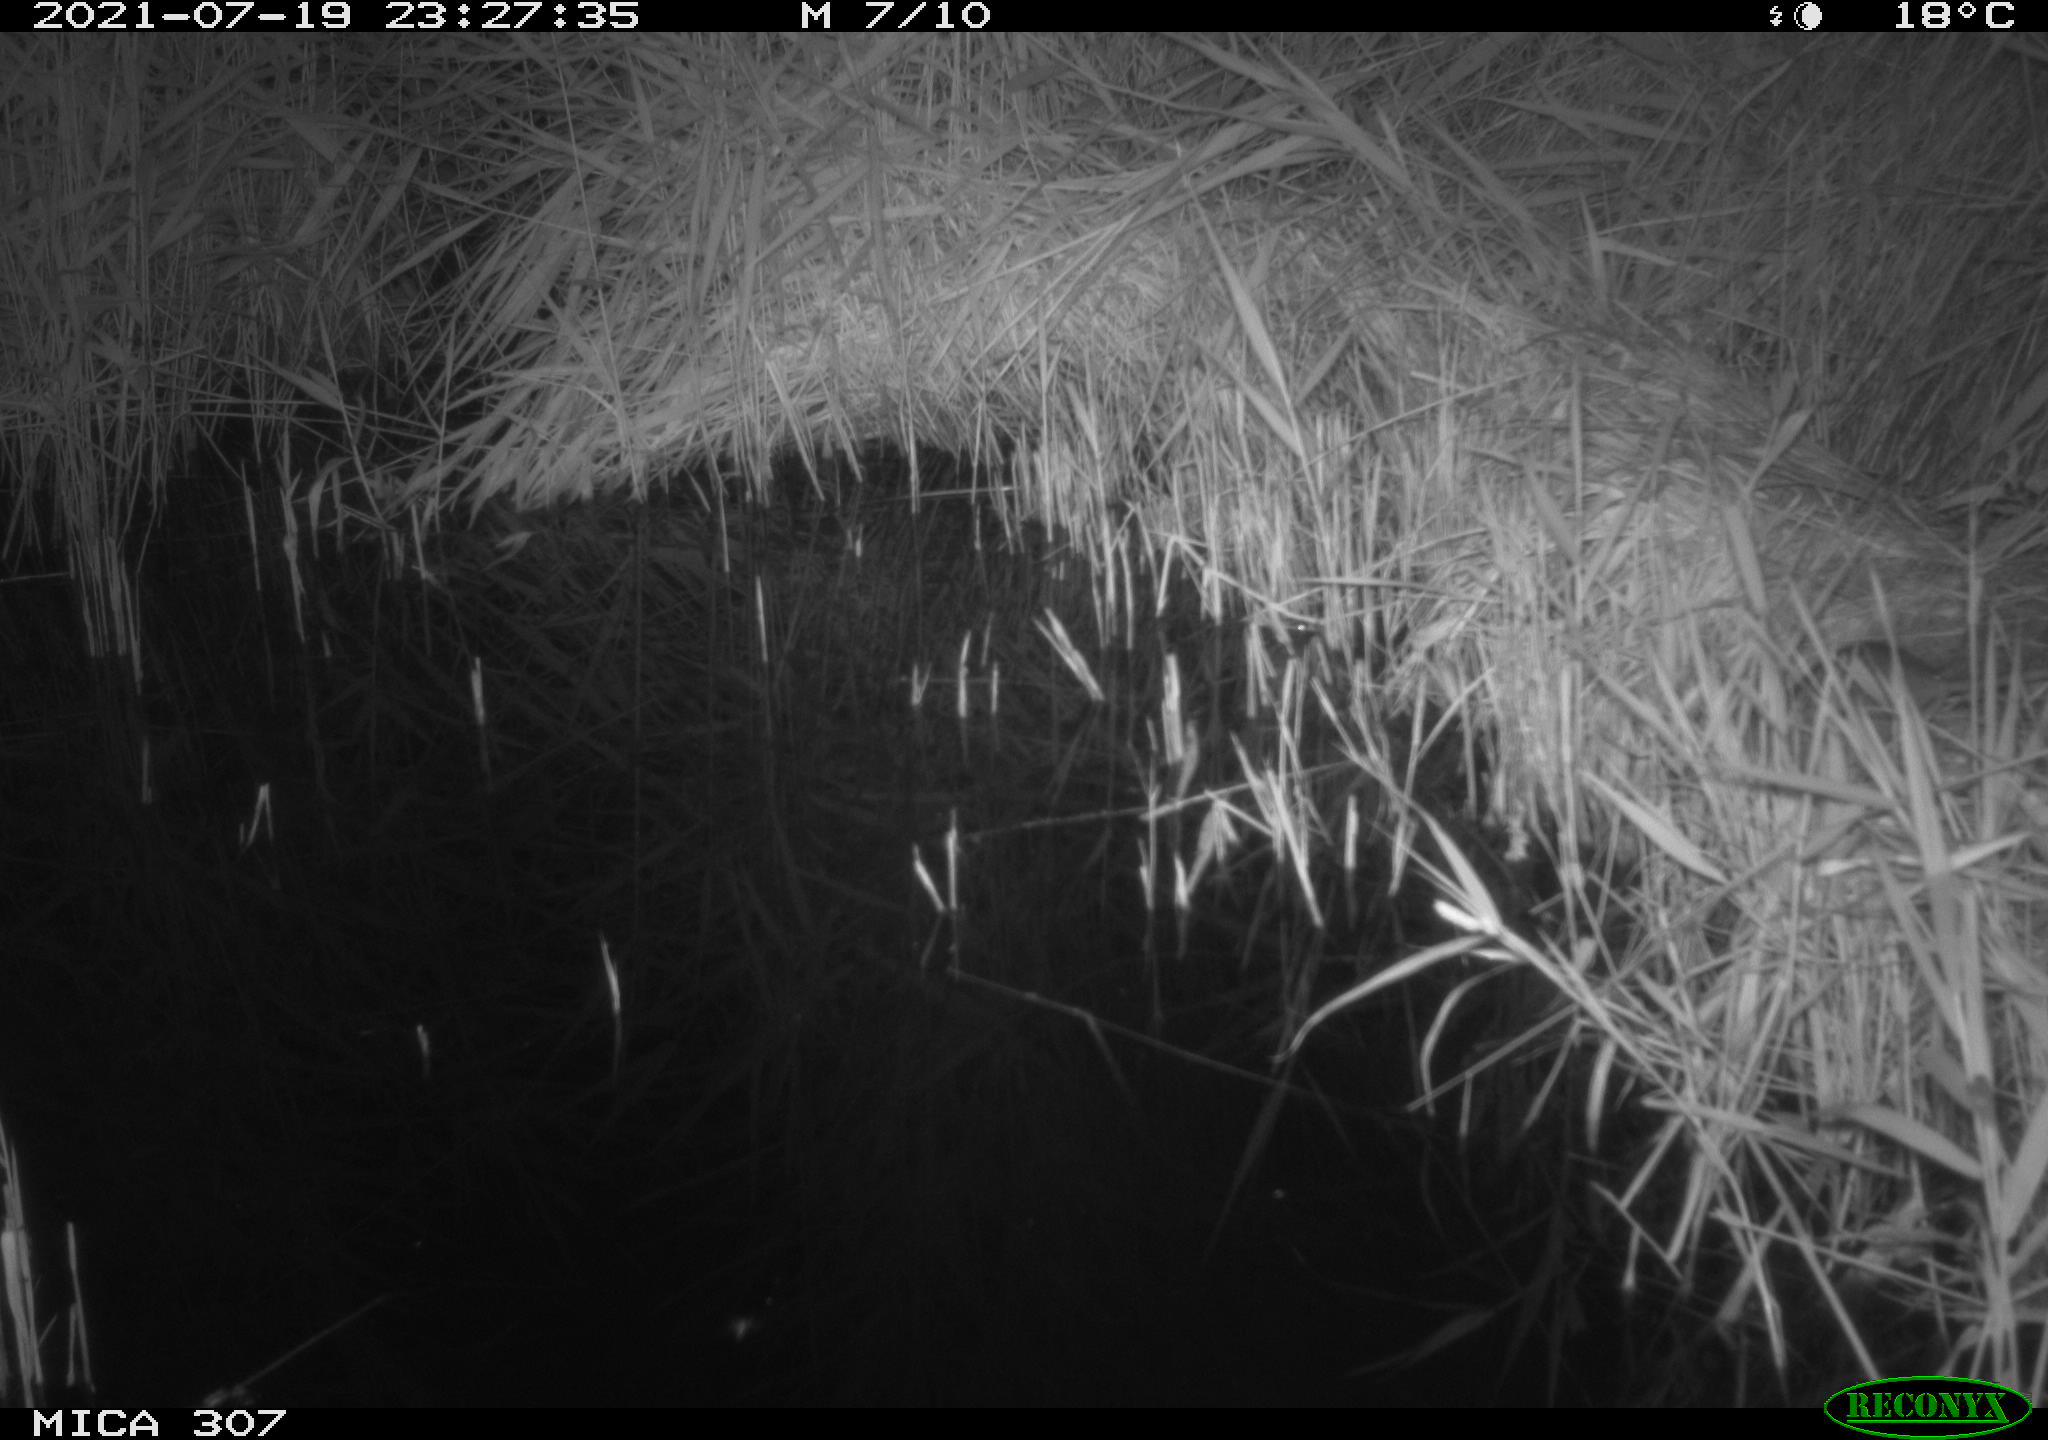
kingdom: Animalia
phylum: Chordata
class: Mammalia
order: Rodentia
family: Muridae
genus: Rattus
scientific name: Rattus norvegicus
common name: Brown rat
